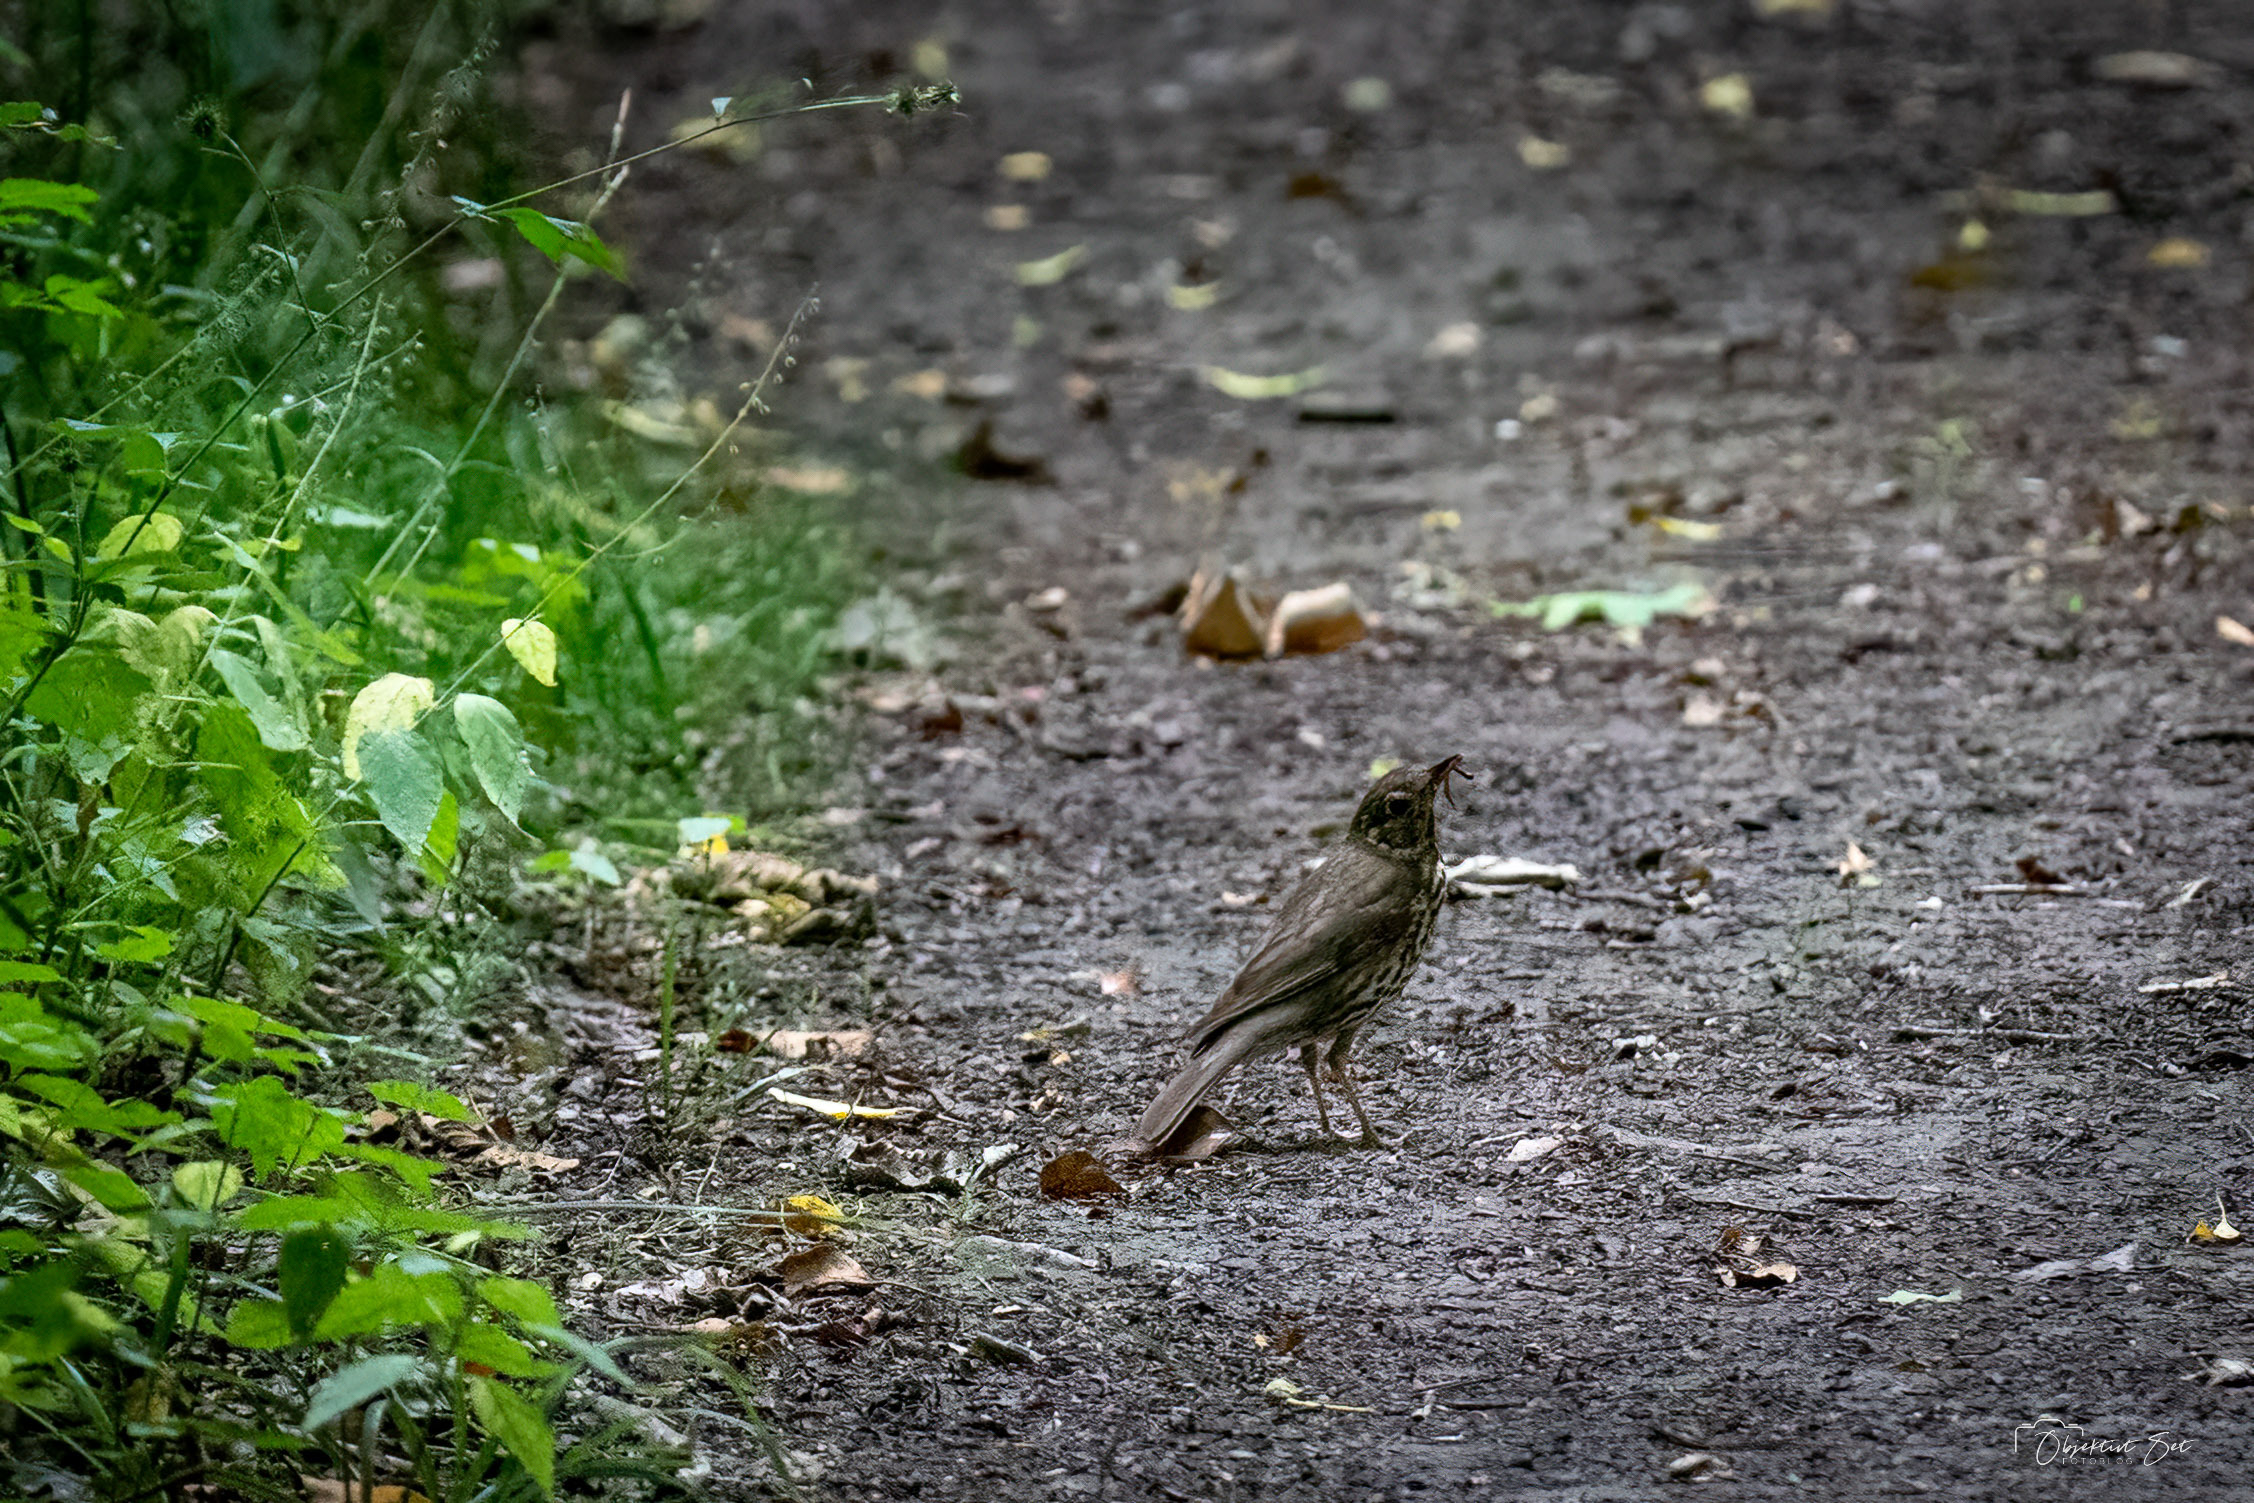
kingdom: Animalia
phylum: Chordata
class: Aves
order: Passeriformes
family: Turdidae
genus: Turdus
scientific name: Turdus philomelos
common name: Sangdrossel
